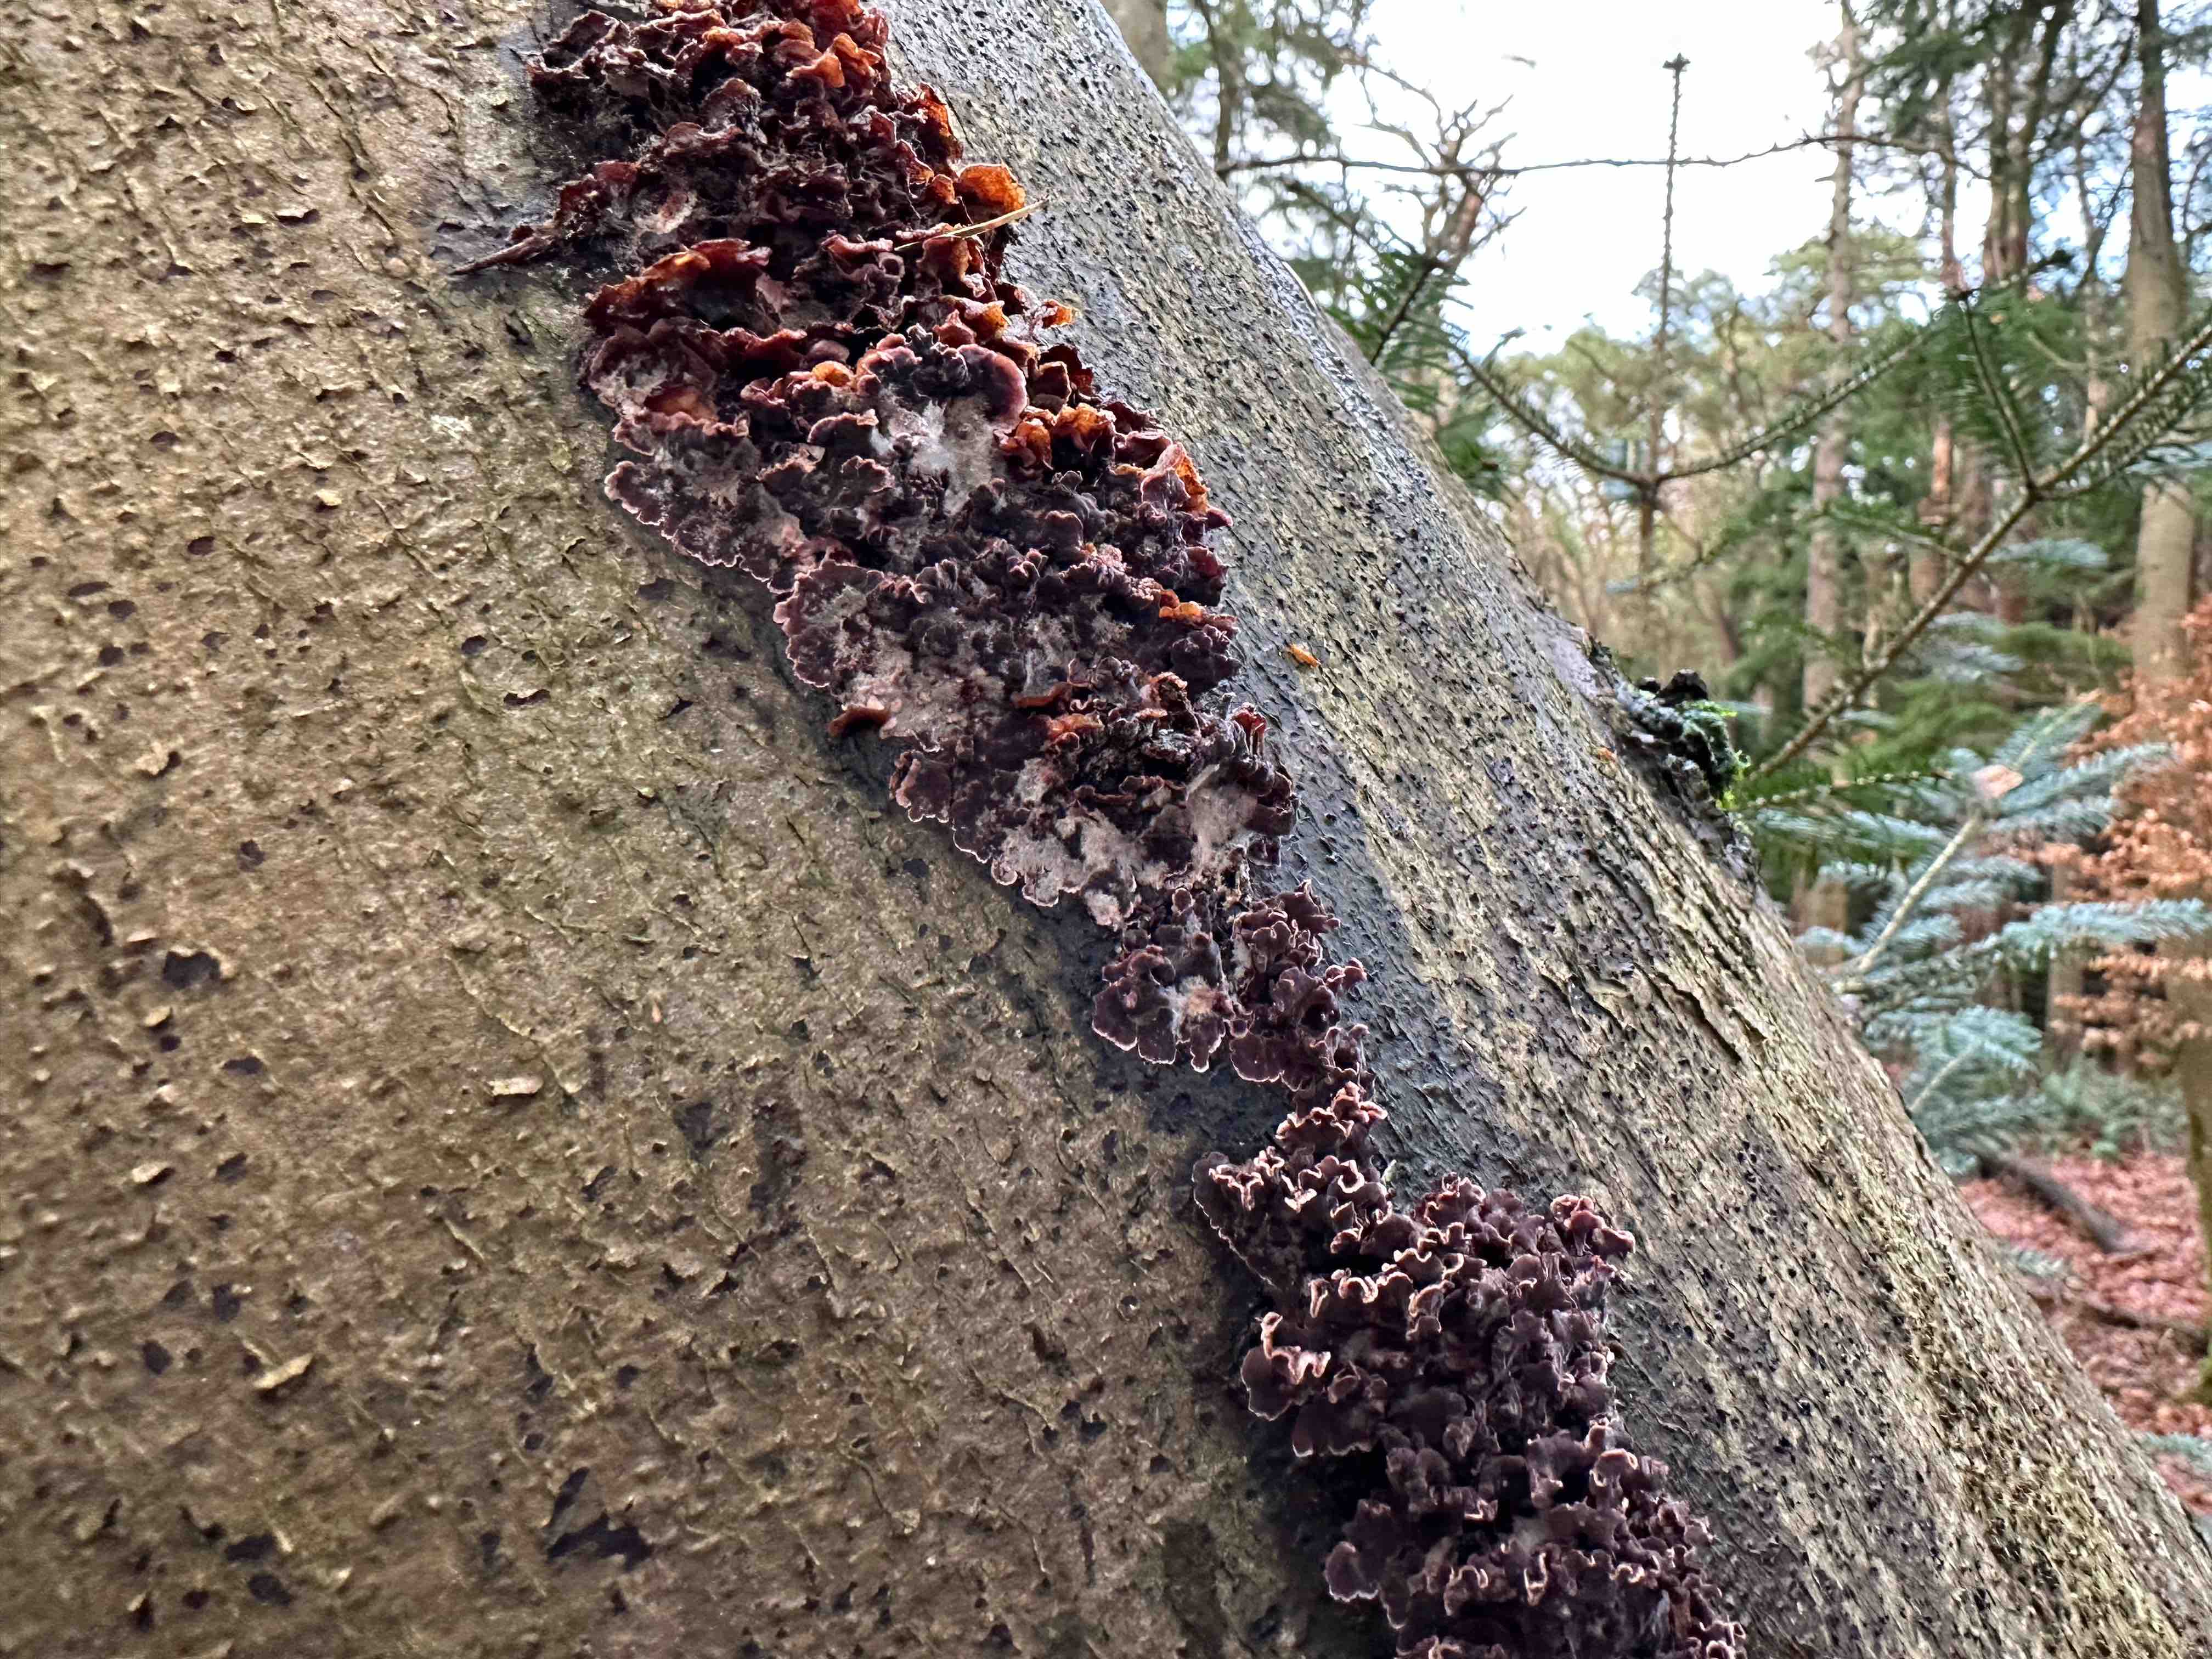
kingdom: Fungi
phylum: Basidiomycota
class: Agaricomycetes
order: Agaricales
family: Cyphellaceae
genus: Chondrostereum
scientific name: Chondrostereum purpureum
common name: purpurlædersvamp
